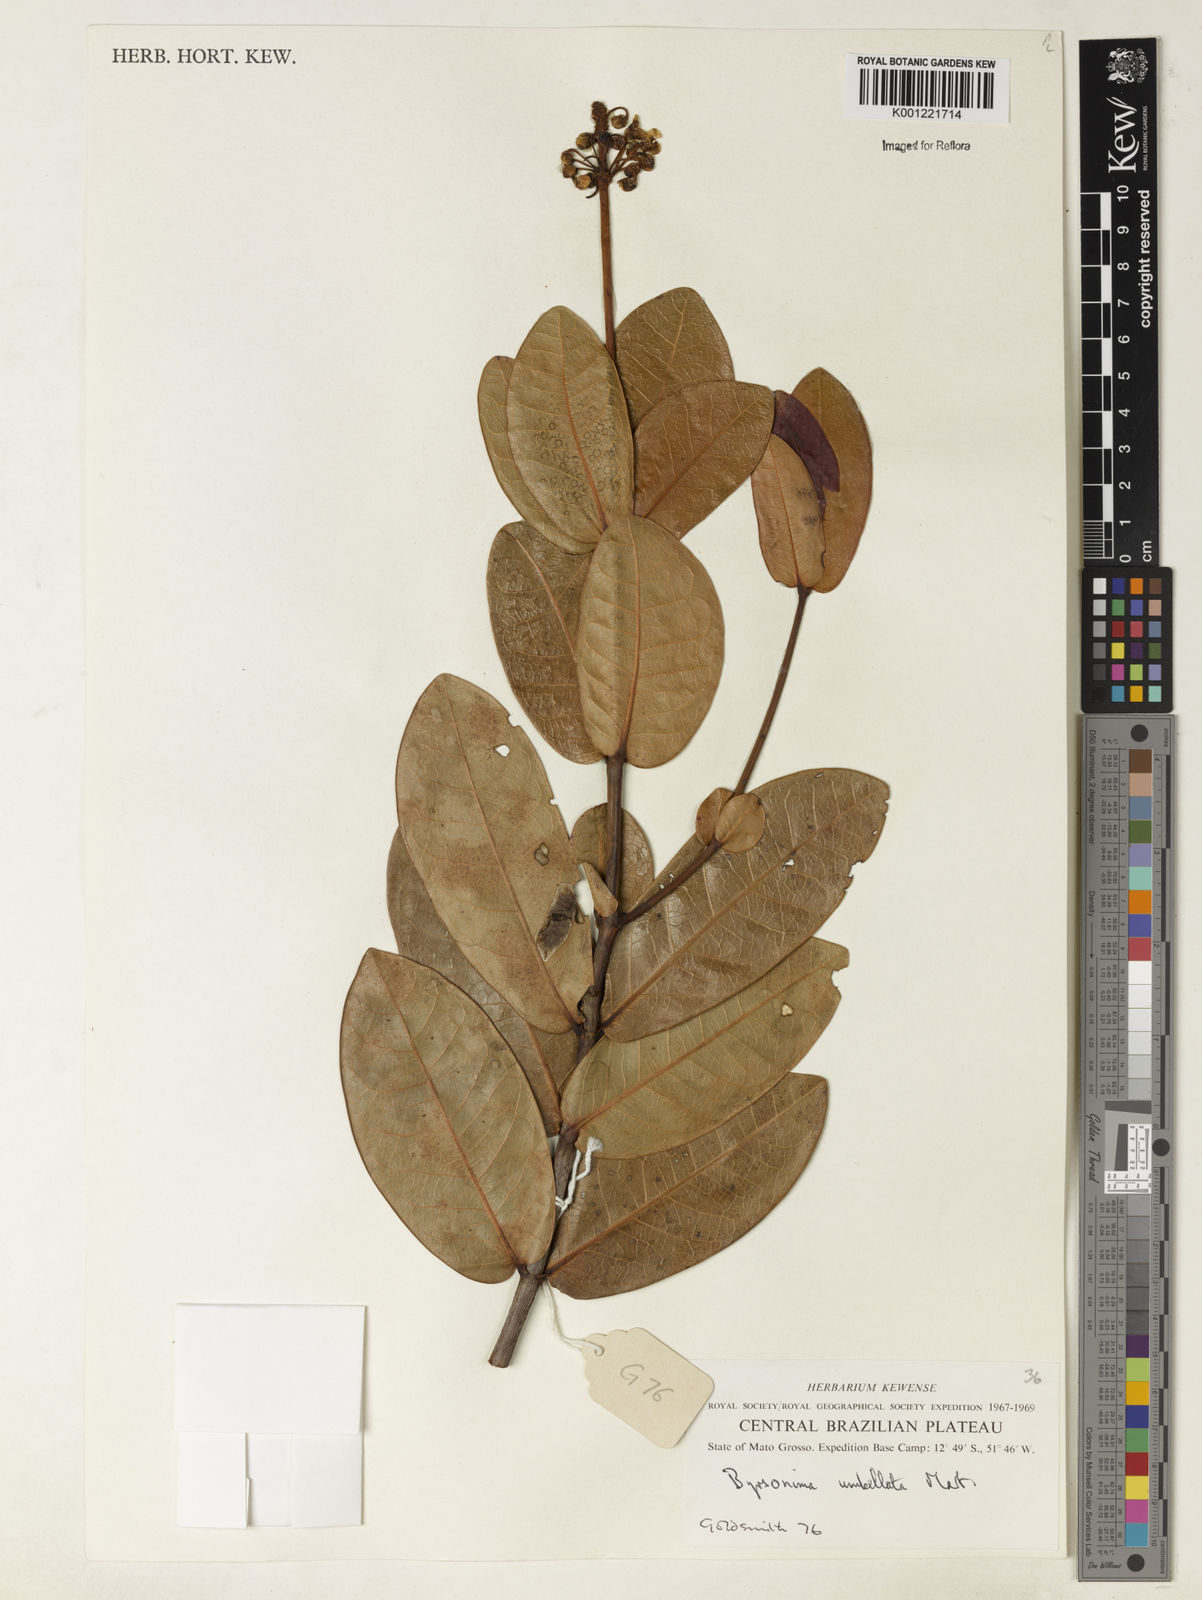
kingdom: Plantae
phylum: Tracheophyta
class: Magnoliopsida
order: Malpighiales
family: Malpighiaceae
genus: Byrsonima
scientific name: Byrsonima umbellata
